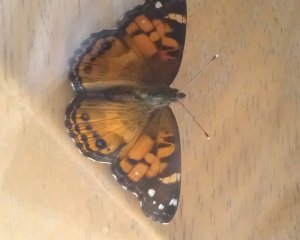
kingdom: Animalia
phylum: Arthropoda
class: Insecta
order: Lepidoptera
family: Nymphalidae
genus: Vanessa
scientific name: Vanessa virginiensis
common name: American Lady
